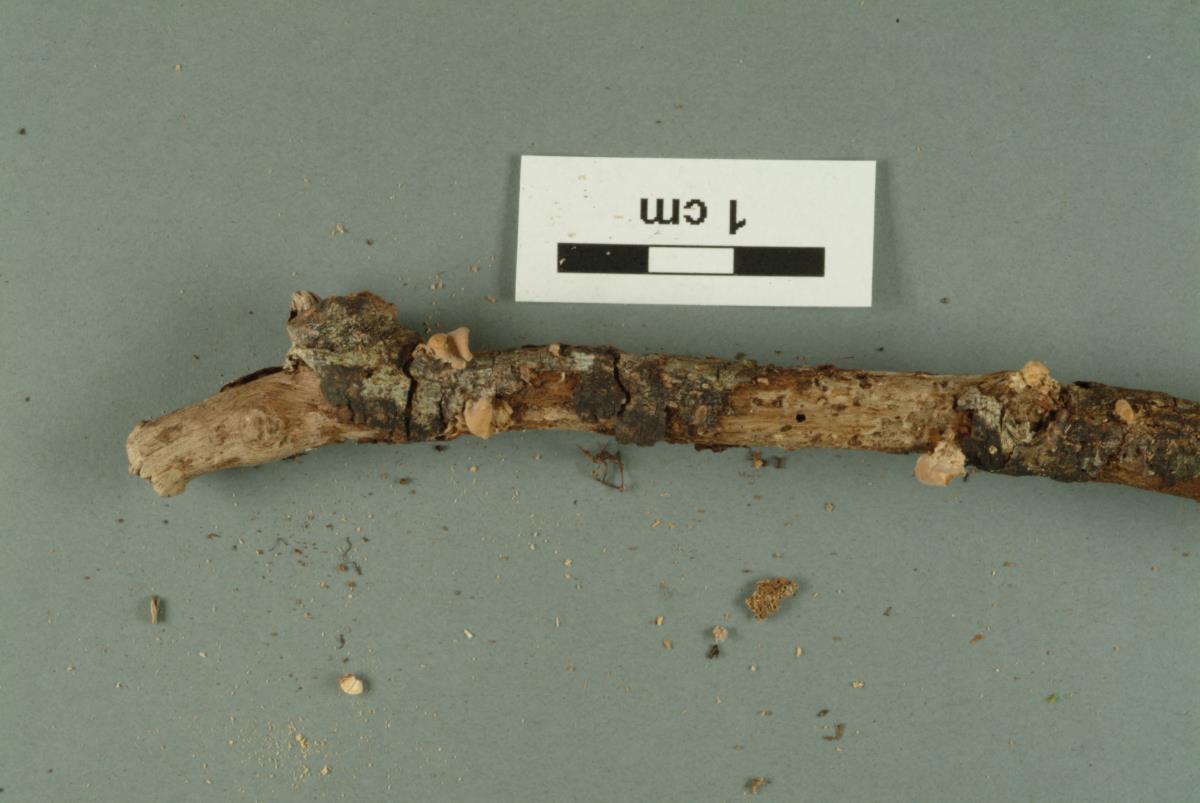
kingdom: Fungi
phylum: Basidiomycota
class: Agaricomycetes
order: Russulales
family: Auriscalpiaceae
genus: Lentinellus
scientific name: Lentinellus pulvinulus
